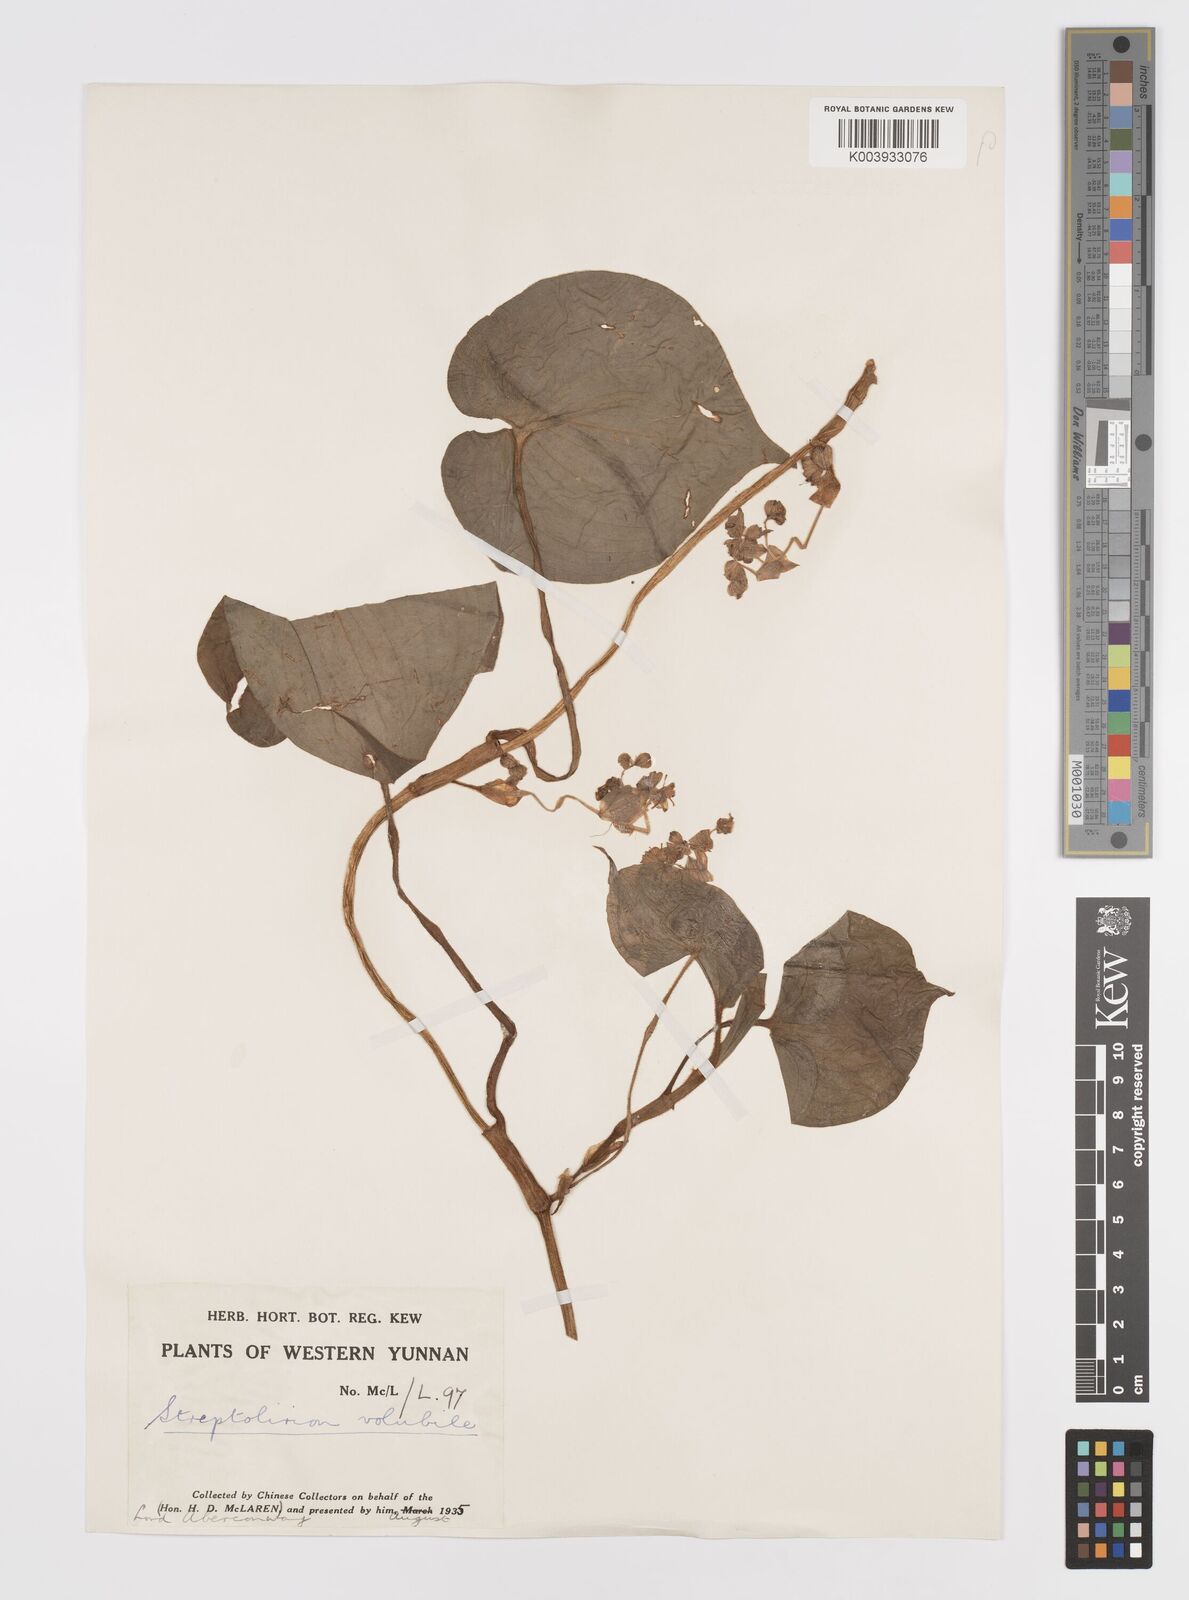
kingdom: Plantae
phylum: Tracheophyta
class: Liliopsida
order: Commelinales
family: Commelinaceae
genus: Streptolirion
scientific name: Streptolirion volubile
